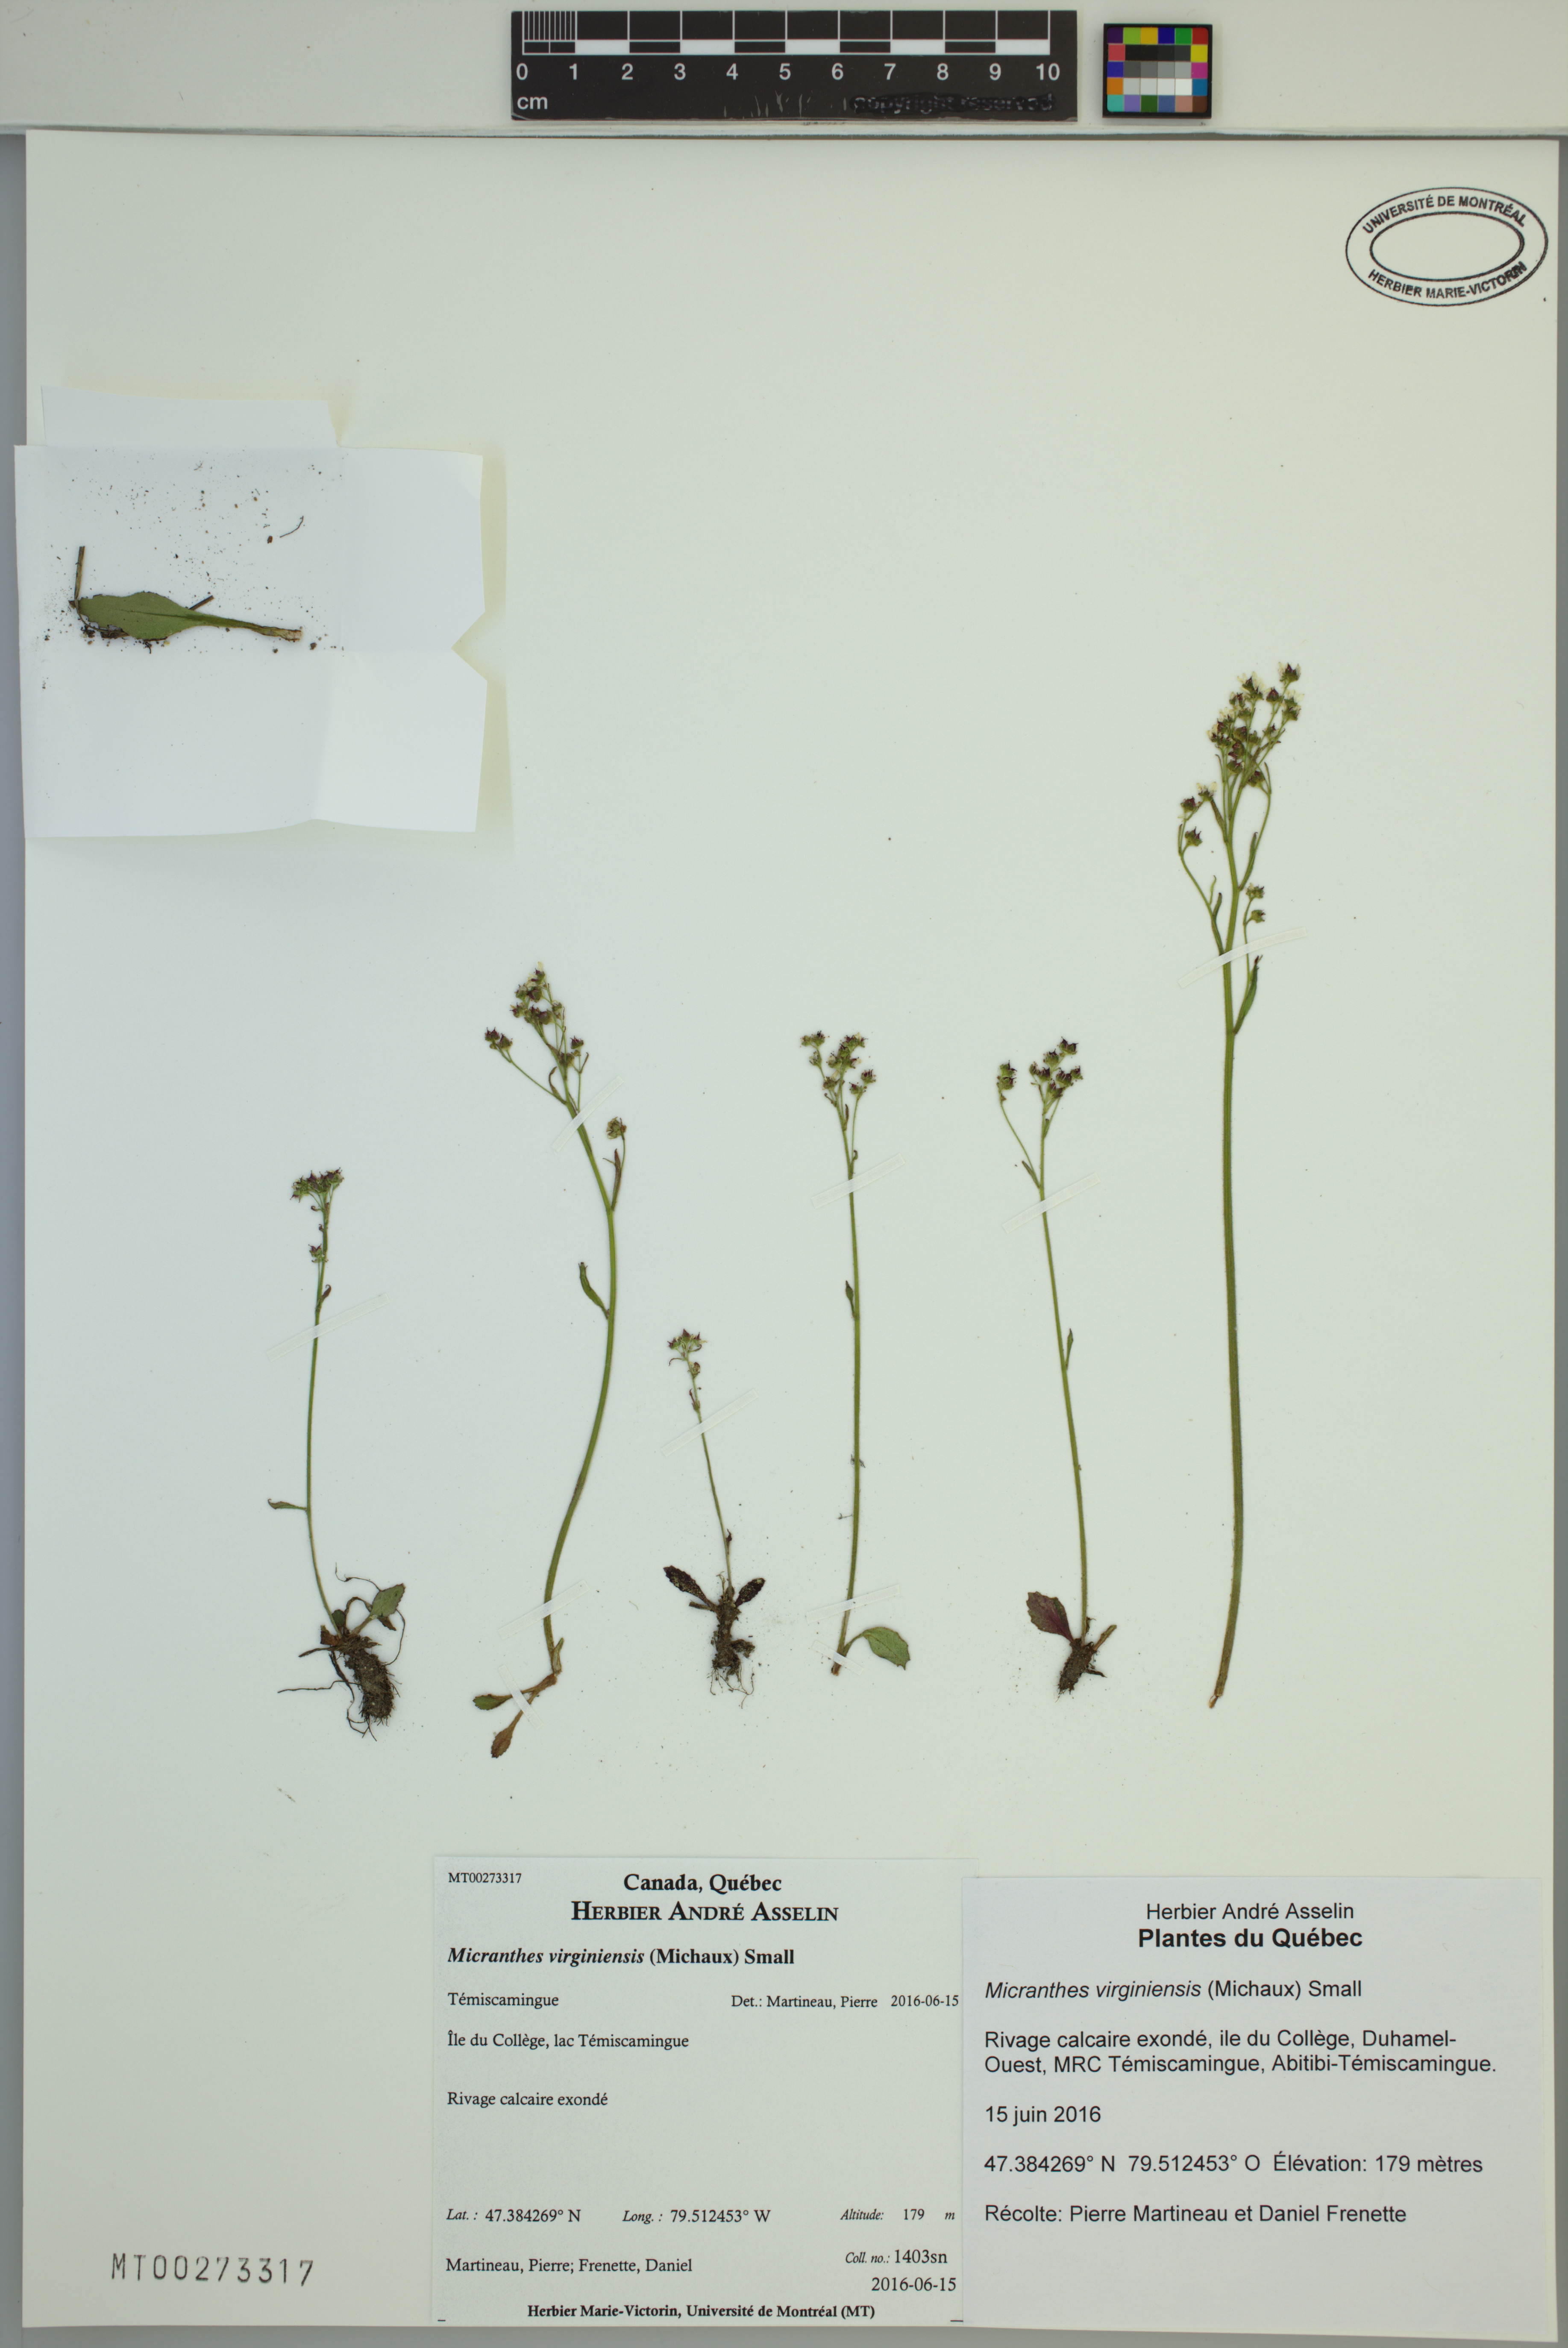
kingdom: Plantae
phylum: Tracheophyta
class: Magnoliopsida
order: Saxifragales
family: Saxifragaceae
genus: Micranthes
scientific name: Micranthes virginiensis
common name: Early saxifrage
